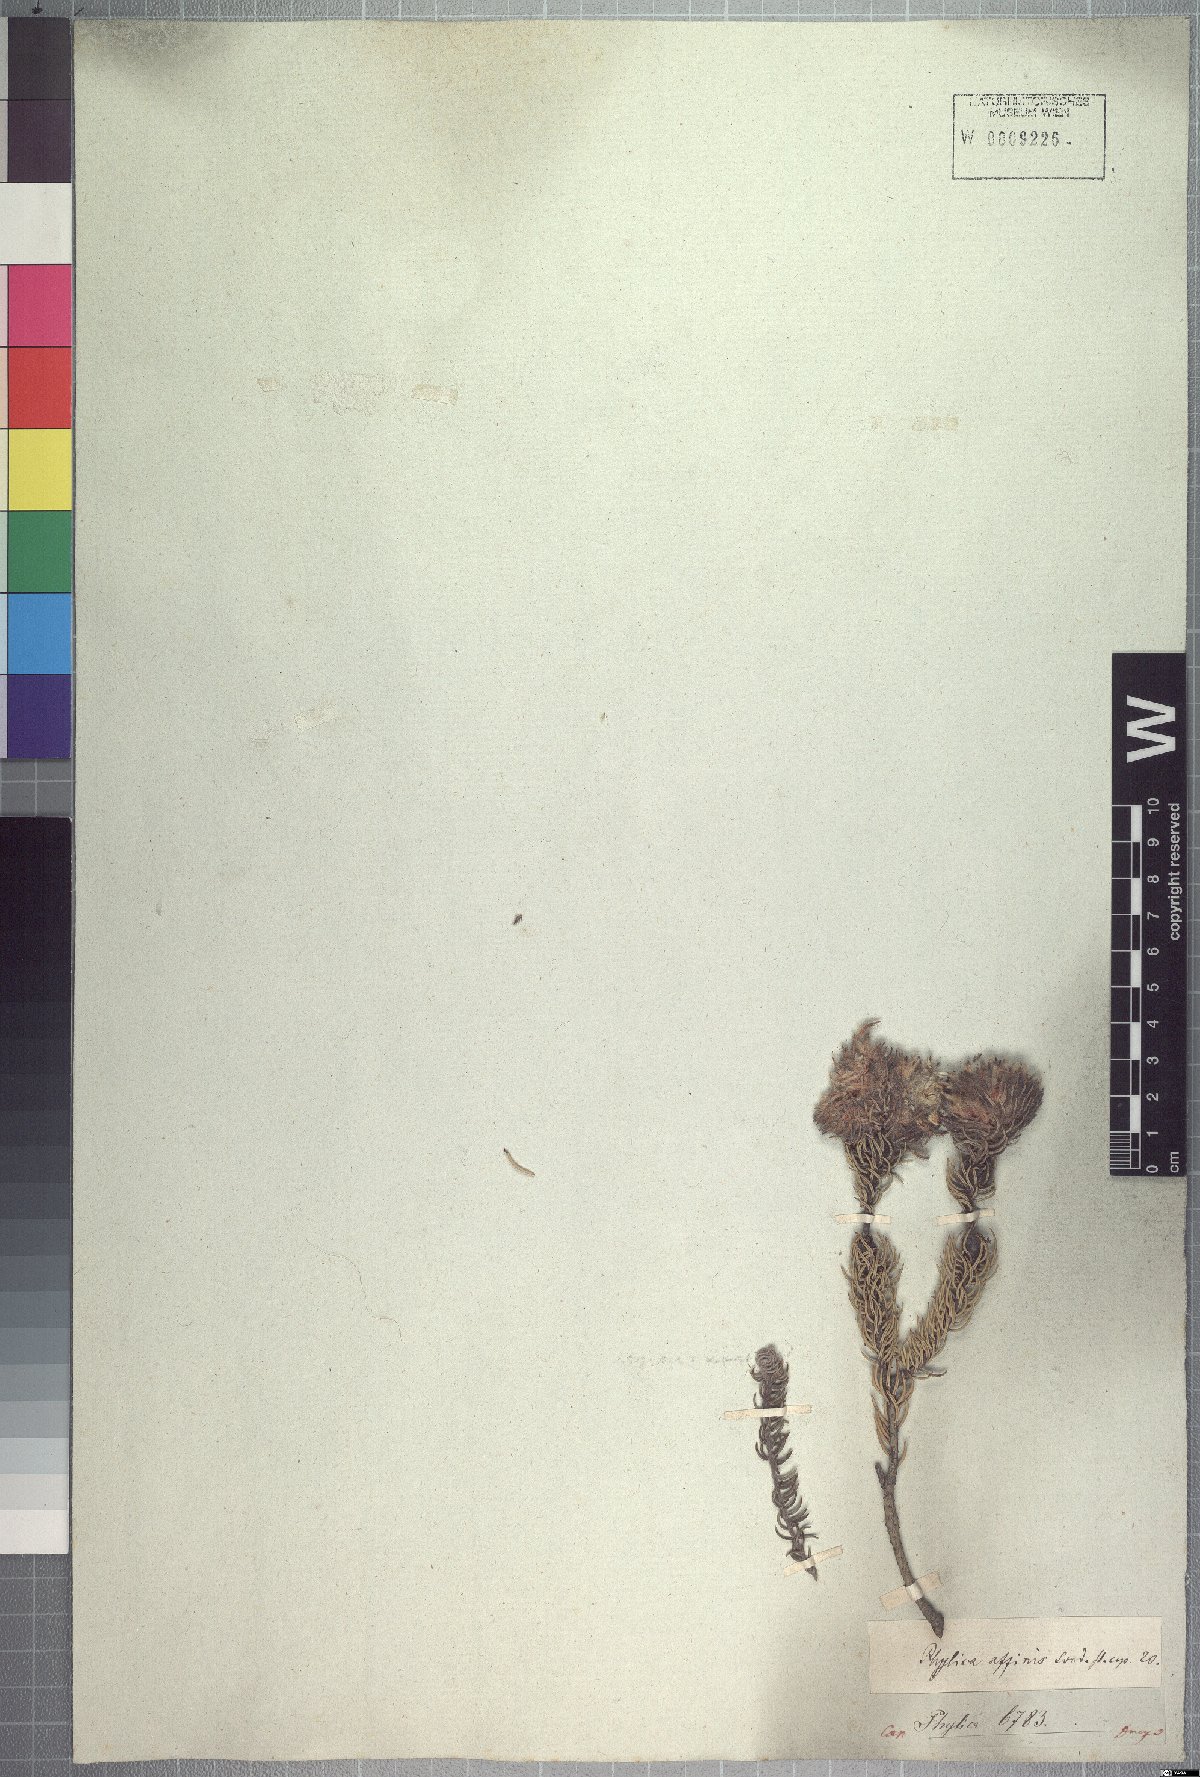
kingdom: Plantae
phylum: Tracheophyta
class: Magnoliopsida
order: Rosales
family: Rhamnaceae
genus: Phylica
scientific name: Phylica affinis
